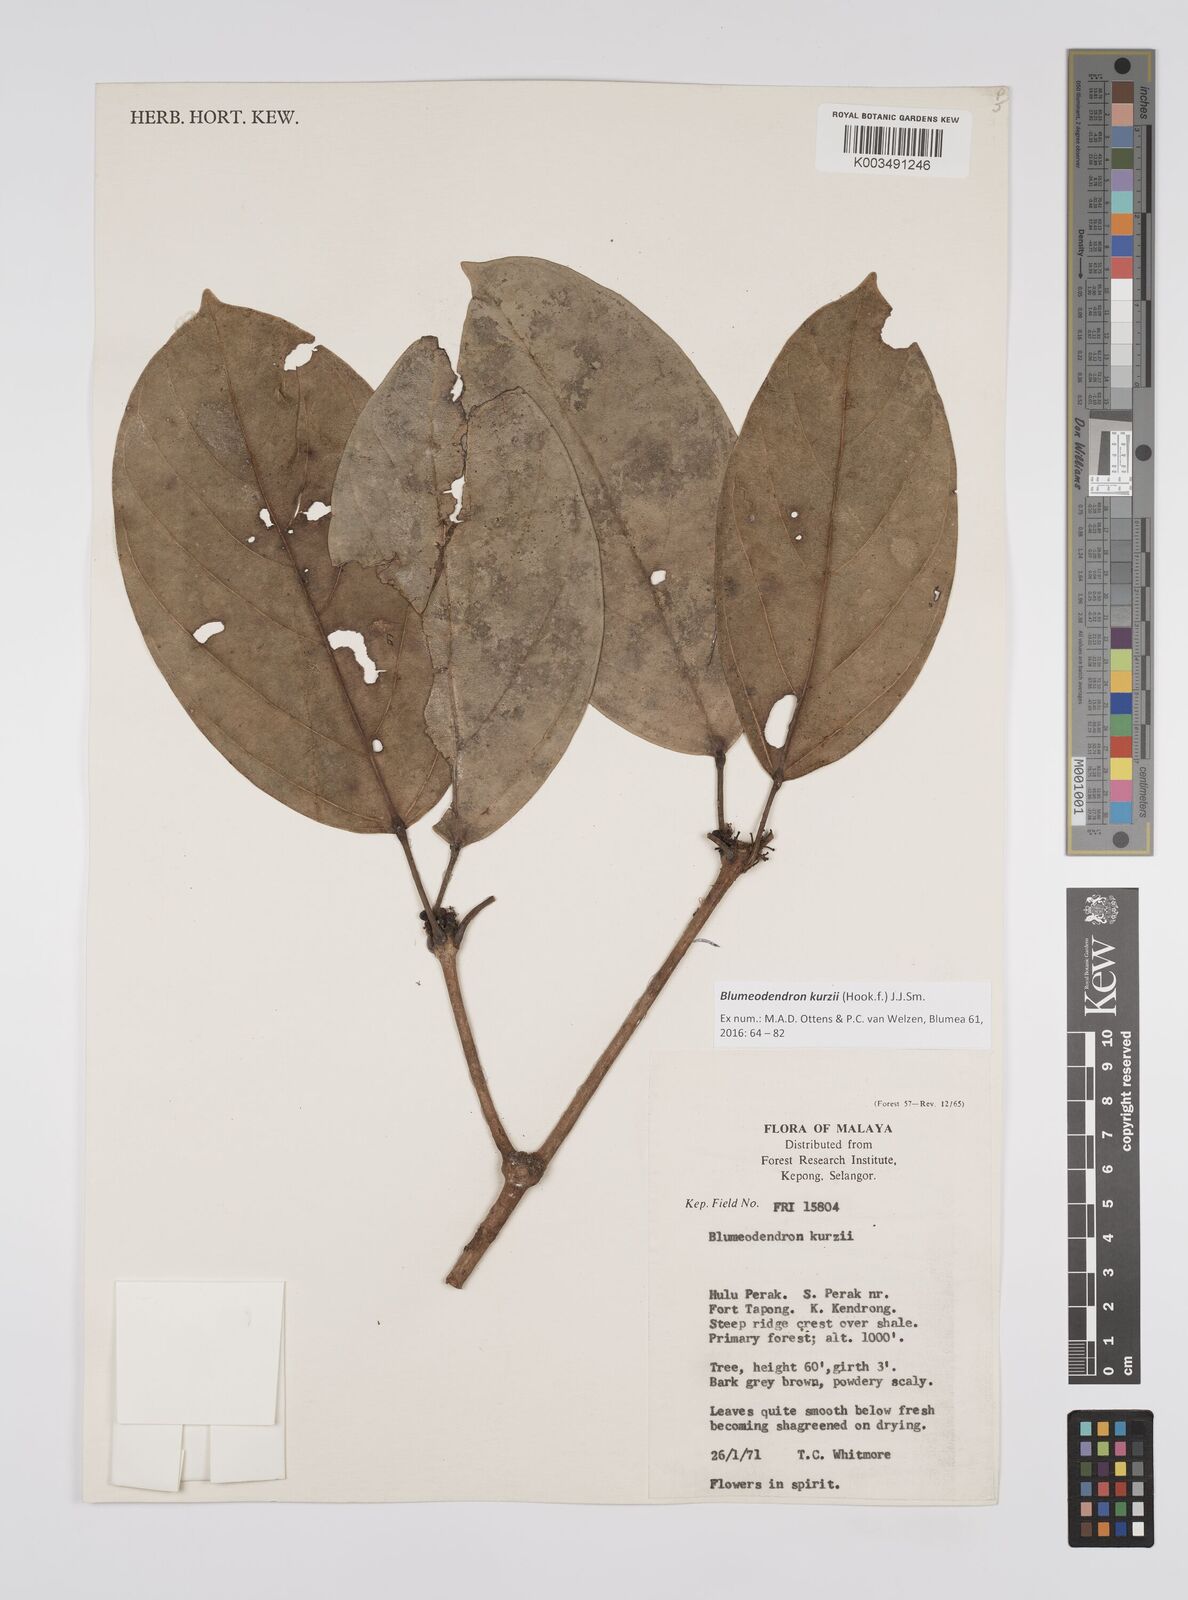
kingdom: Plantae
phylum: Tracheophyta
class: Magnoliopsida
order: Malpighiales
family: Euphorbiaceae
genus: Blumeodendron
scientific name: Blumeodendron kurzii
